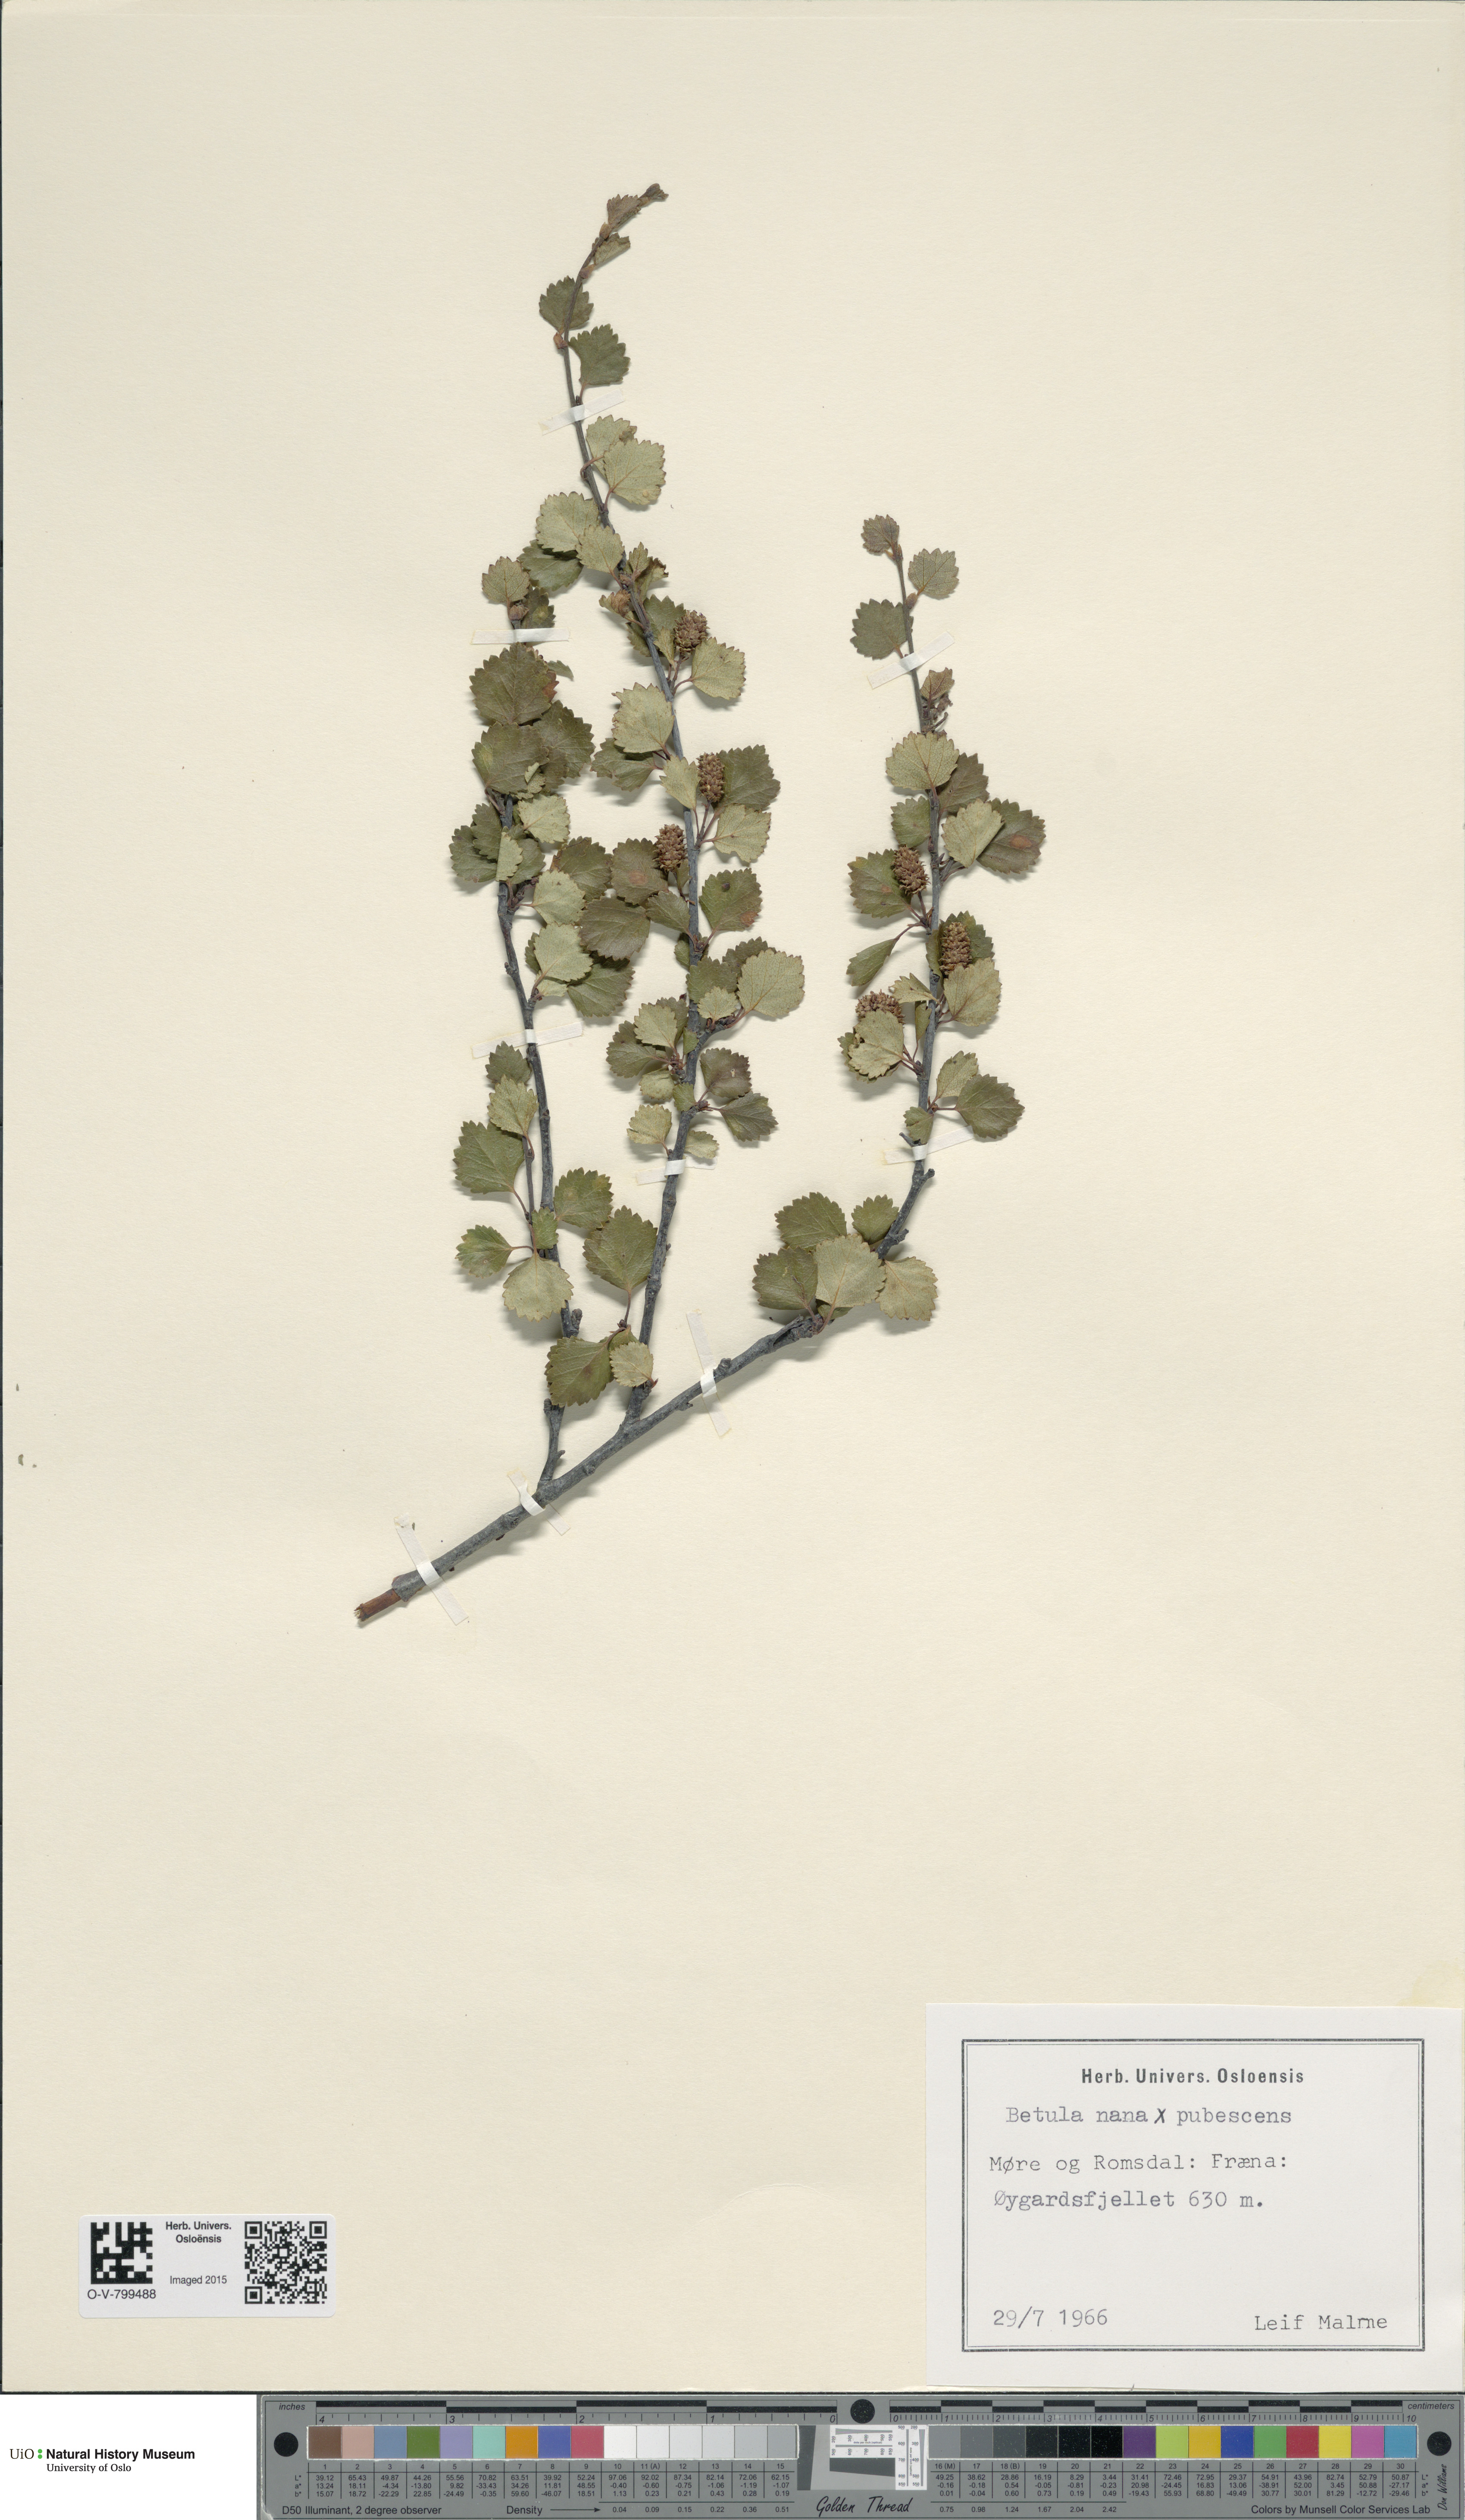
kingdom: Plantae
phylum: Tracheophyta
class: Magnoliopsida
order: Fagales
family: Betulaceae
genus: Betula
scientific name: Betula nana
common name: Arctic dwarf birch
